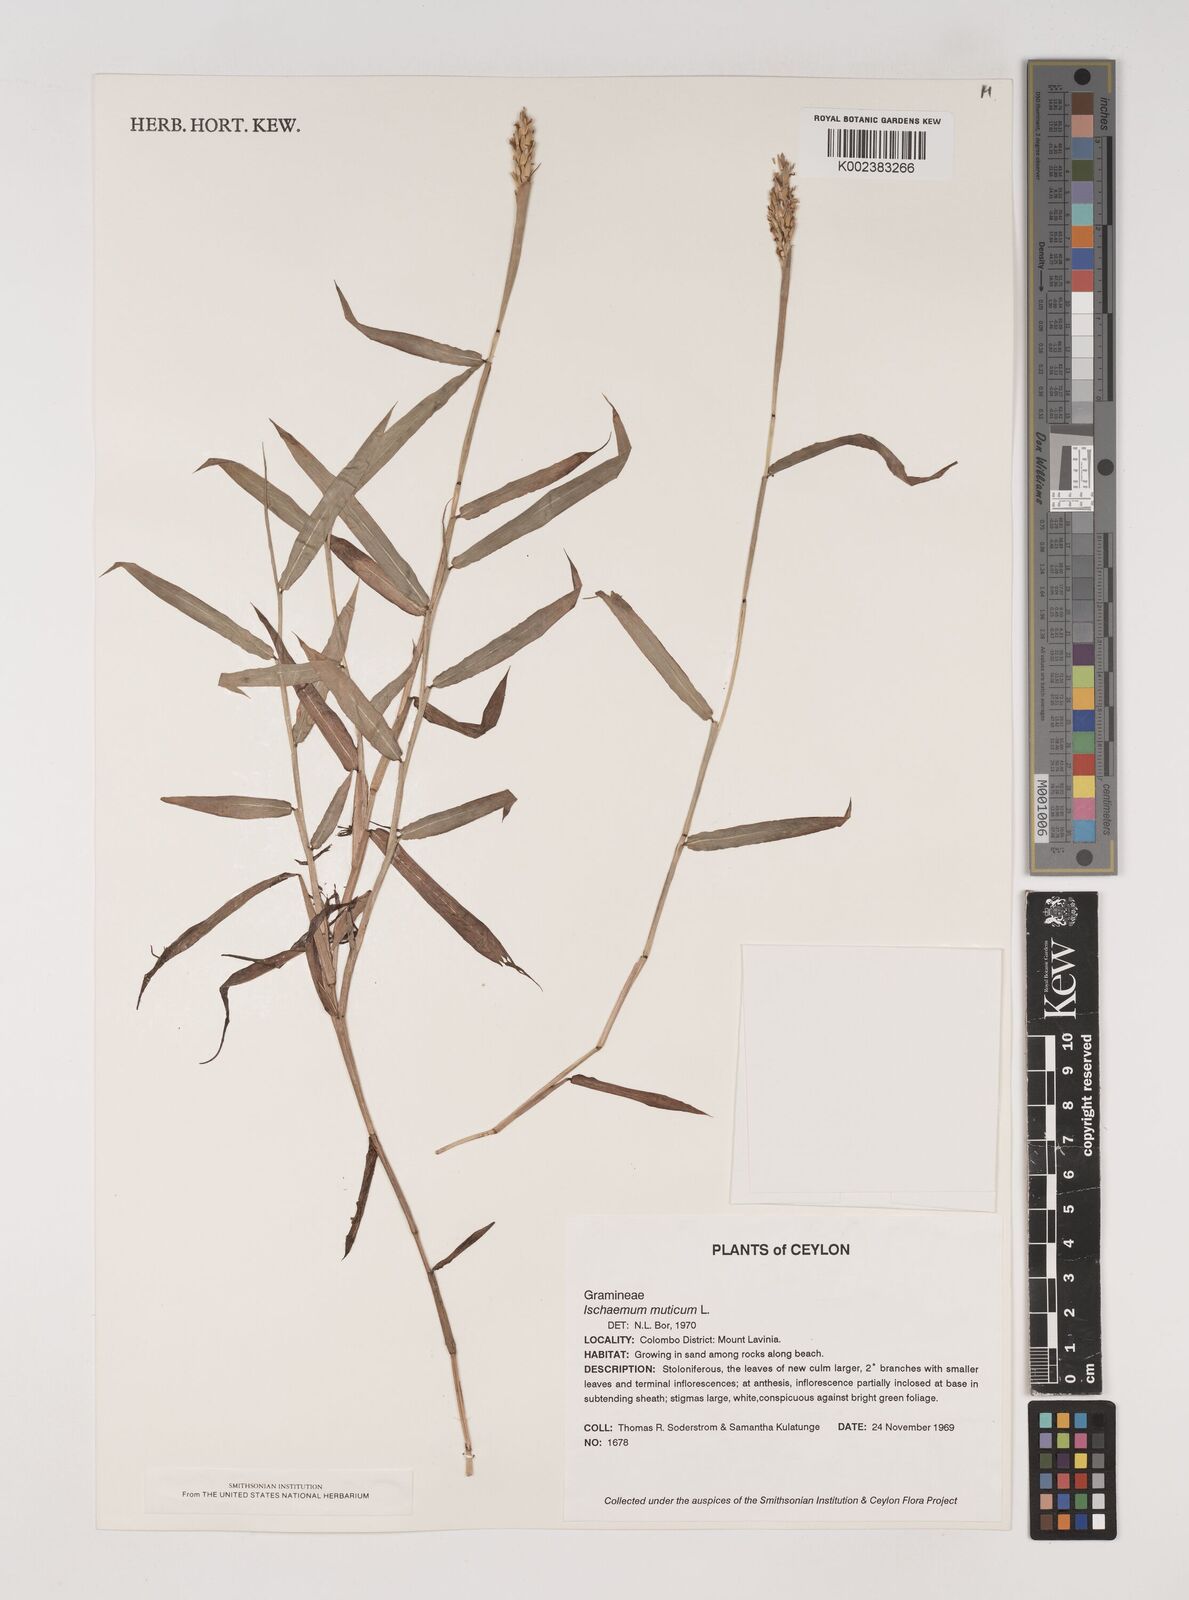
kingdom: Plantae
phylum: Tracheophyta
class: Liliopsida
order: Poales
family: Poaceae
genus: Ischaemum
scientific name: Ischaemum muticum
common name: Drought grass
